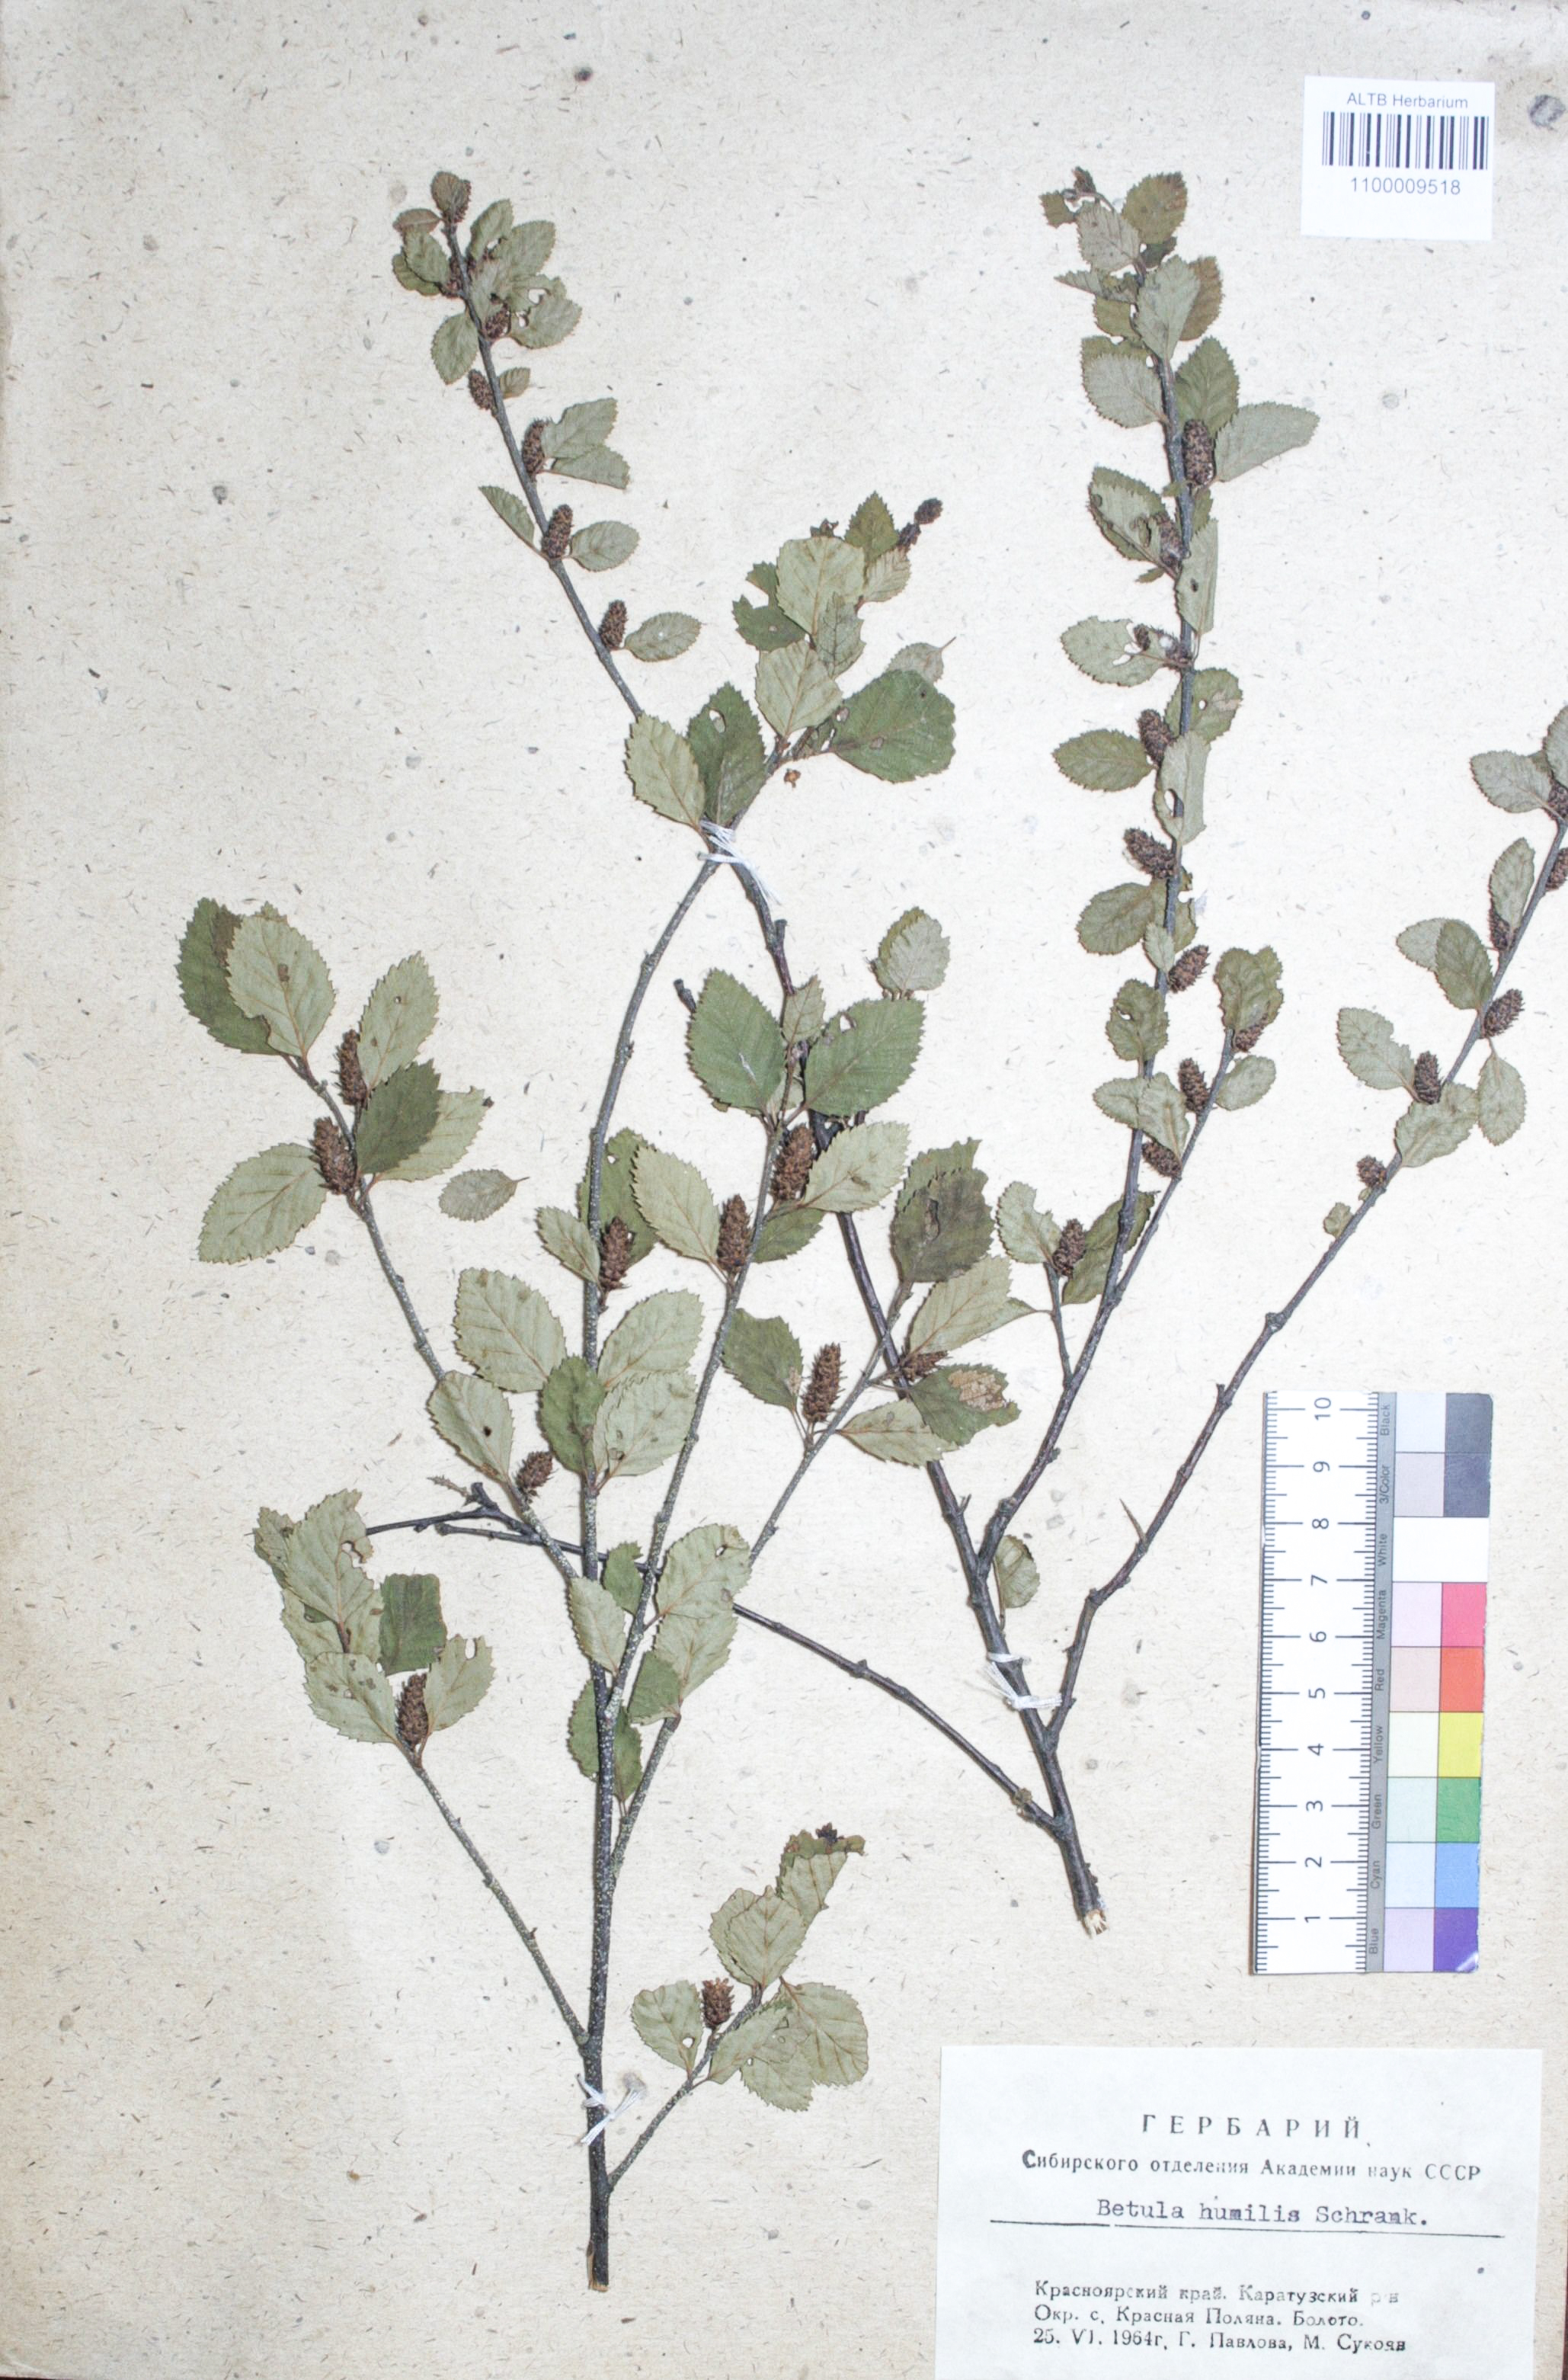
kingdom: Plantae
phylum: Tracheophyta
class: Magnoliopsida
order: Fagales
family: Betulaceae
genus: Betula
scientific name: Betula humilis
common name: Shrubby birch
